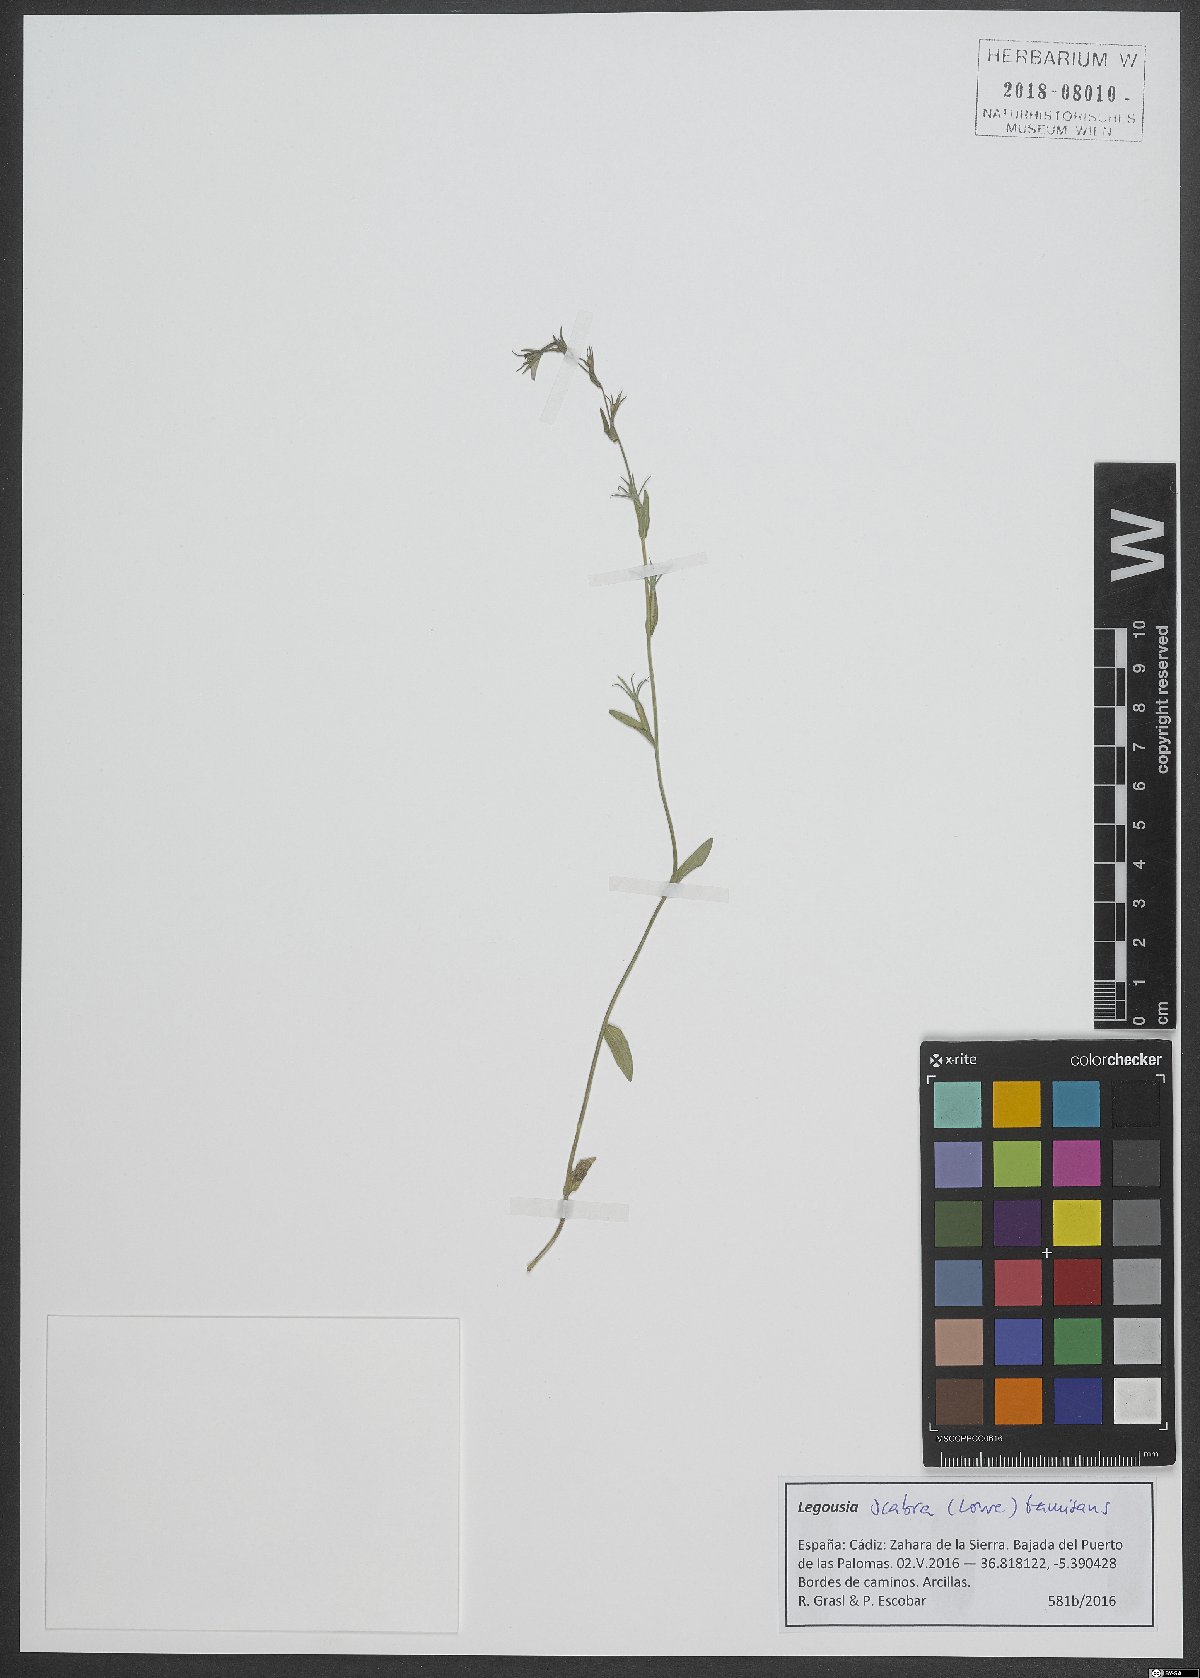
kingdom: Plantae
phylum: Tracheophyta
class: Magnoliopsida
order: Asterales
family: Campanulaceae
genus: Legousia
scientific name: Legousia falcata
